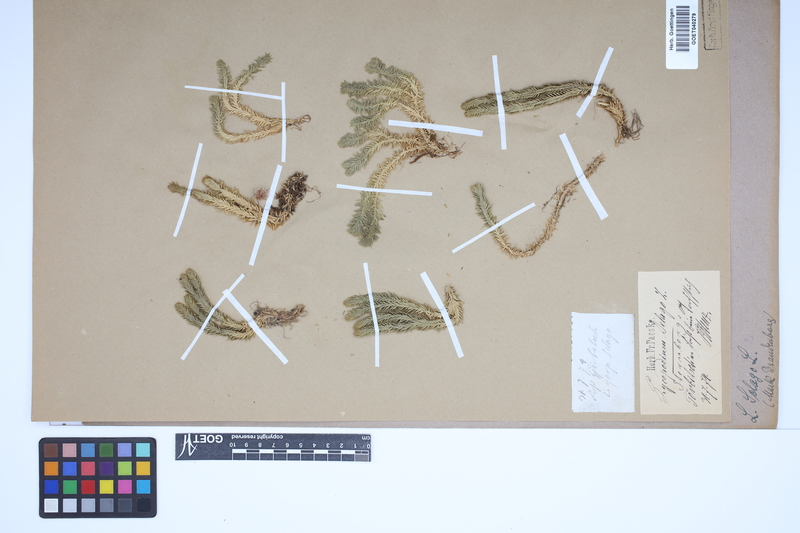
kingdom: Plantae
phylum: Tracheophyta
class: Lycopodiopsida
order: Lycopodiales
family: Lycopodiaceae
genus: Huperzia
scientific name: Huperzia selago
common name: Northern firmoss
